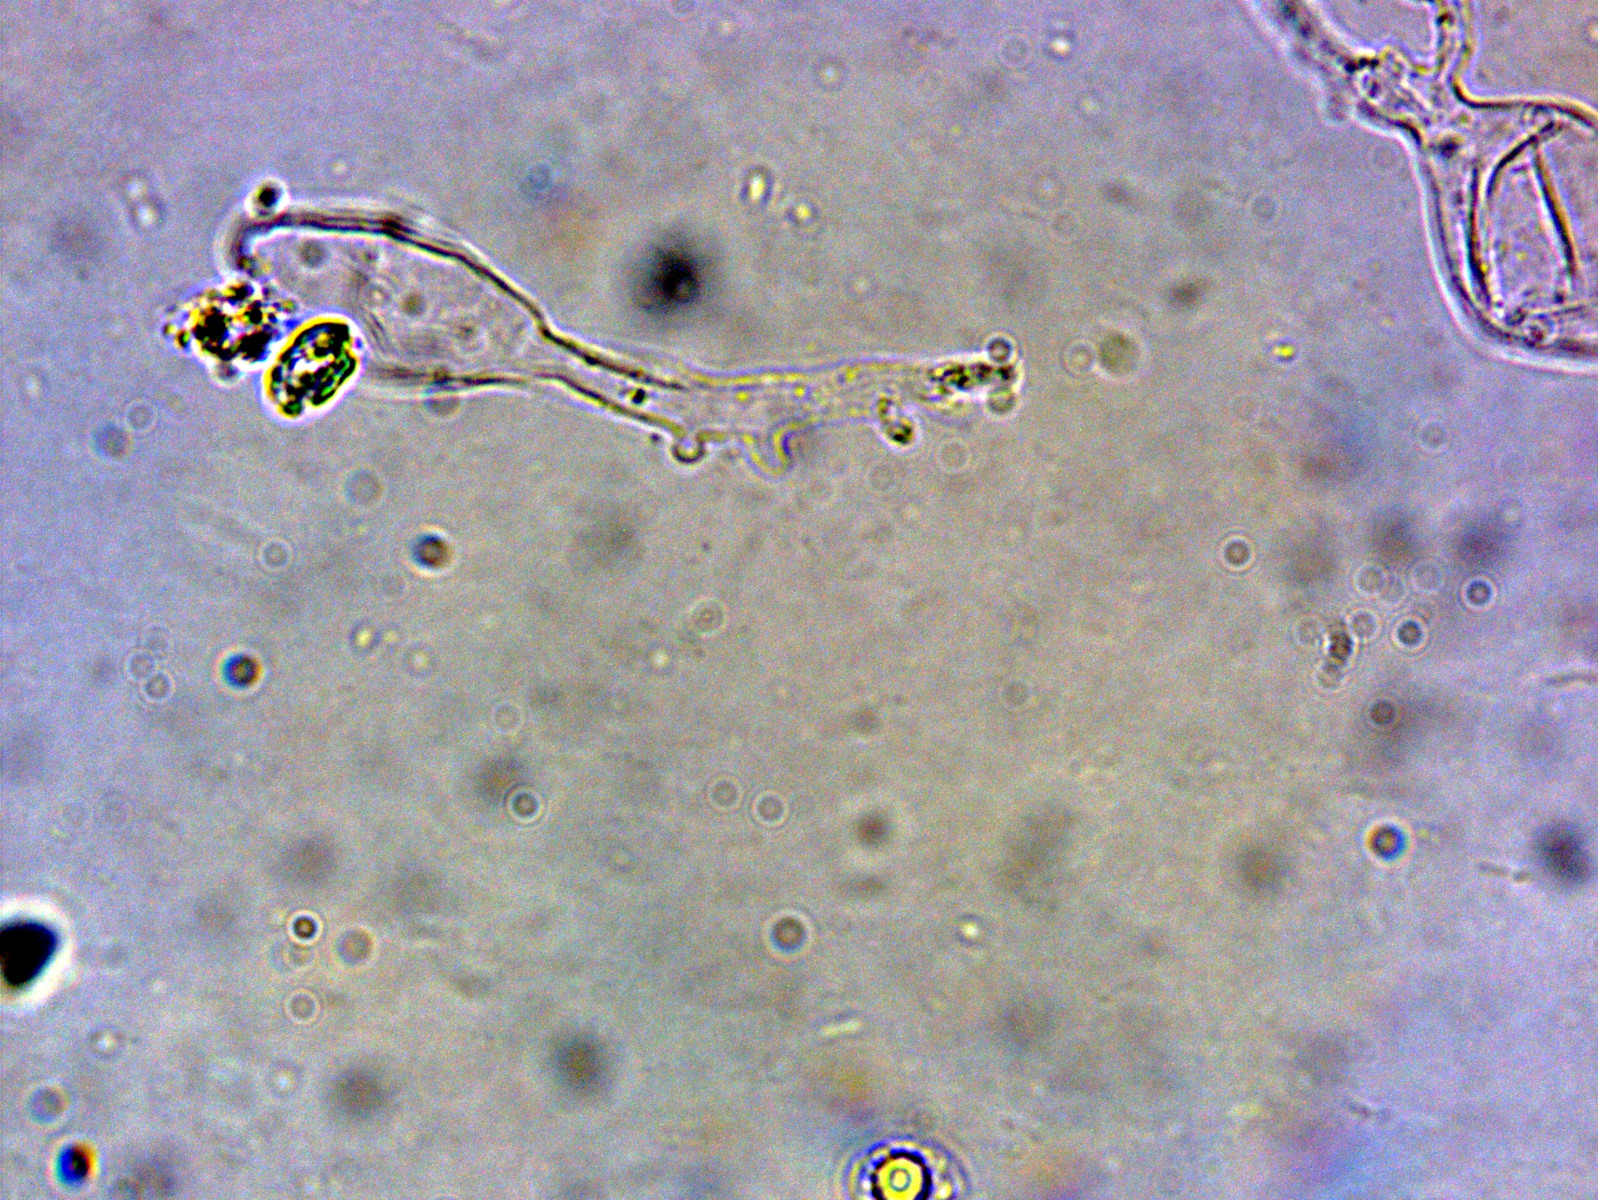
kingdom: Fungi
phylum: Basidiomycota
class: Agaricomycetes
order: Agaricales
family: Mycenaceae
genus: Mycena
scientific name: Mycena olivaceomarginata
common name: brunægget huesvamp
